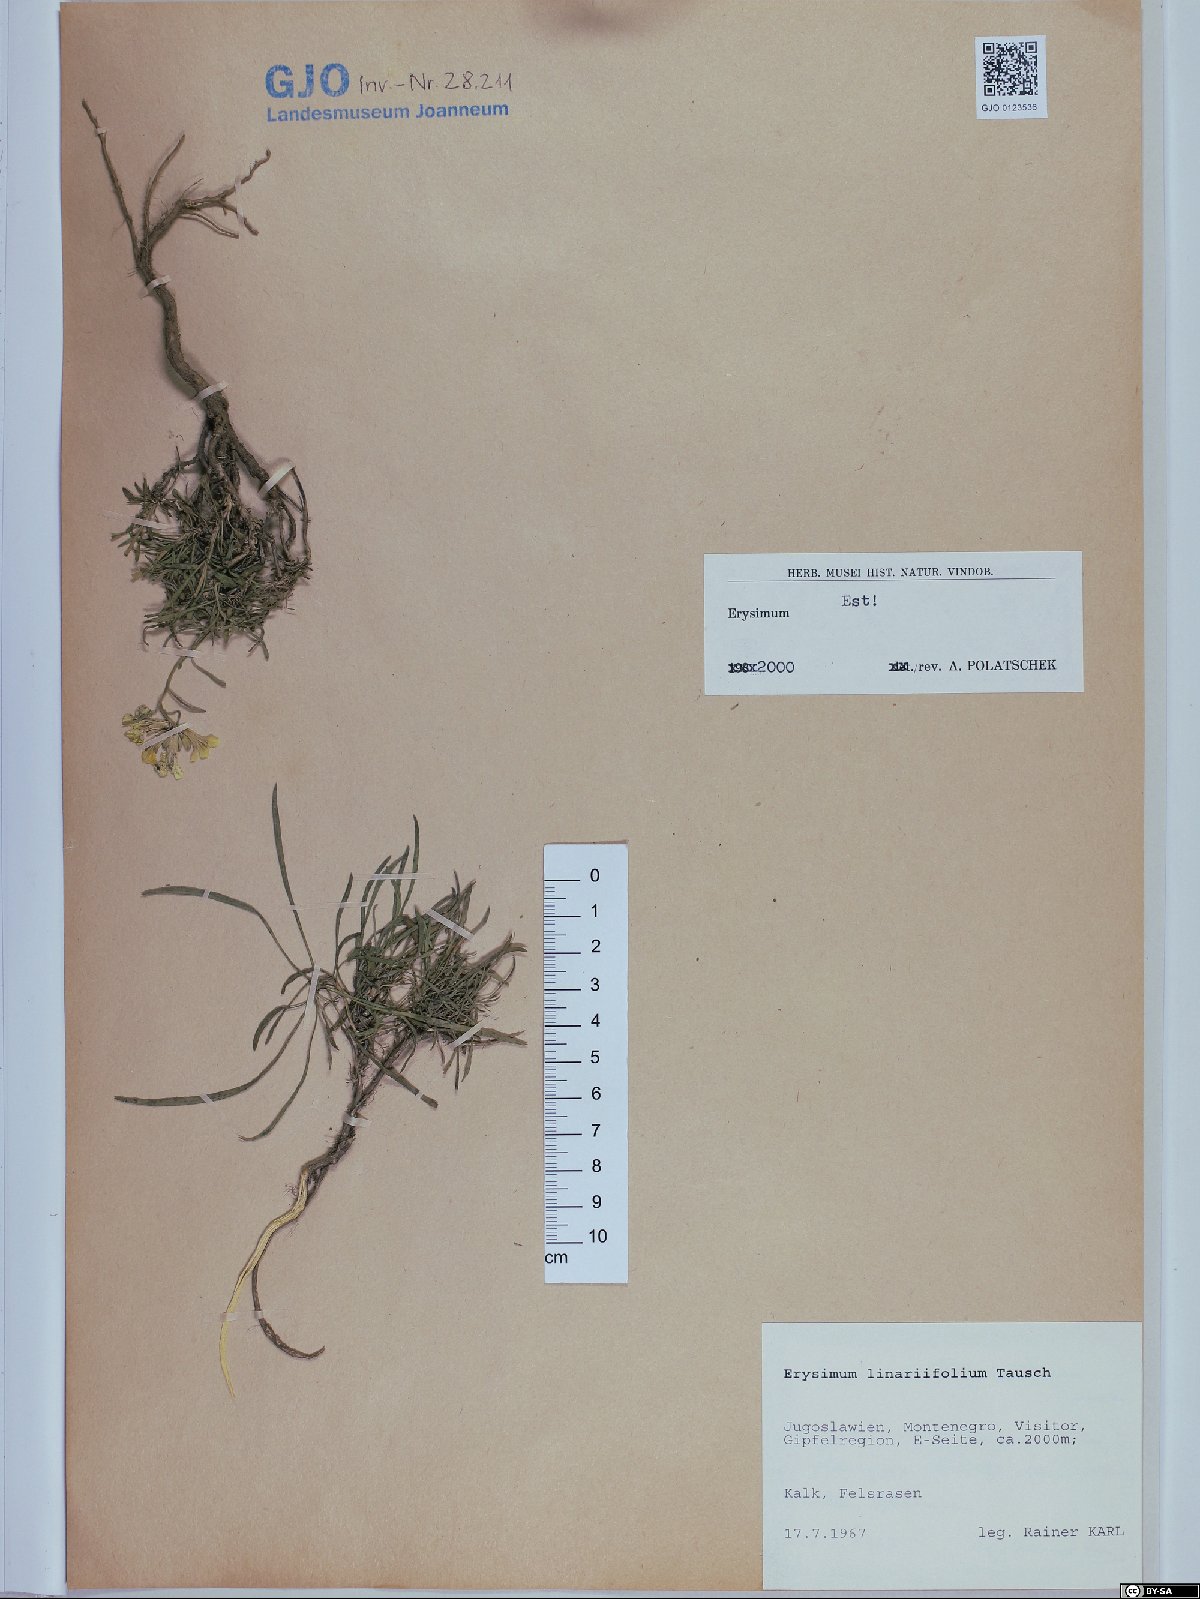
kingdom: Plantae
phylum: Tracheophyta
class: Magnoliopsida
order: Brassicales
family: Brassicaceae
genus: Erysimum
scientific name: Erysimum linariifolium
